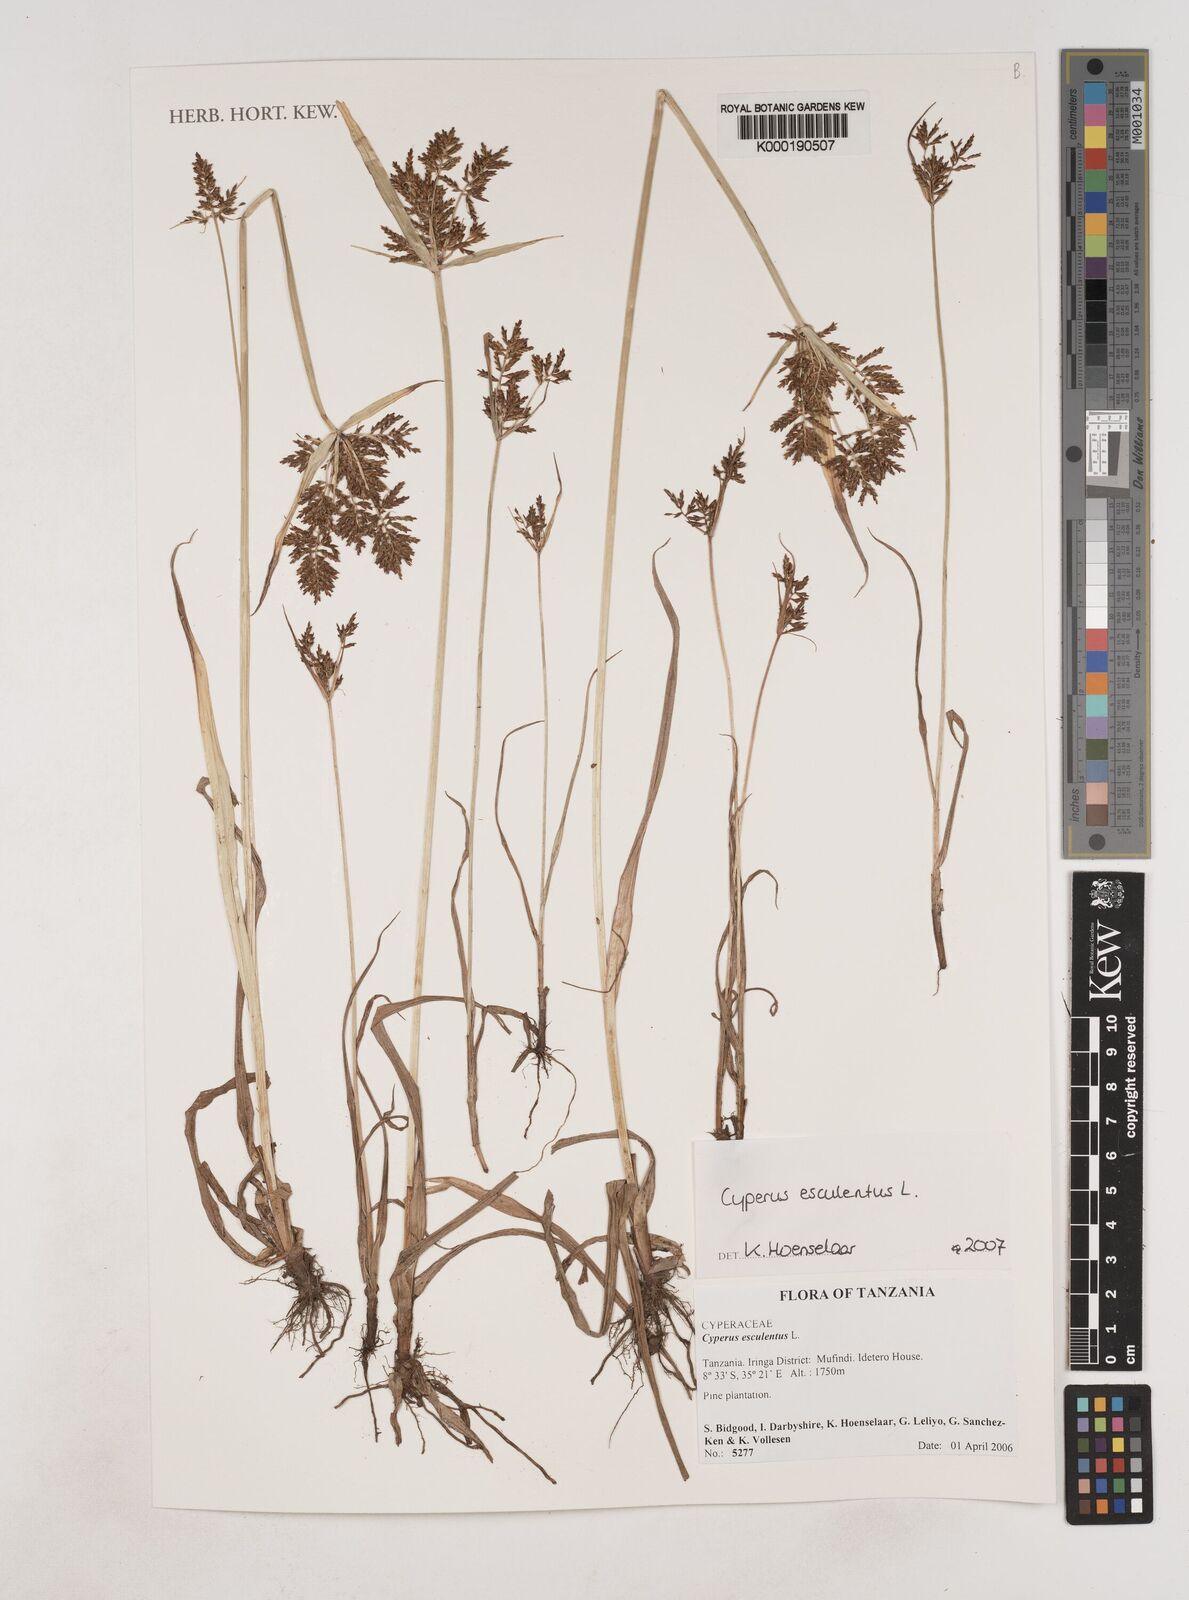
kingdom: Plantae
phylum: Tracheophyta
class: Liliopsida
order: Poales
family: Cyperaceae
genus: Cyperus
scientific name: Cyperus esculentus
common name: Yellow nutsedge
